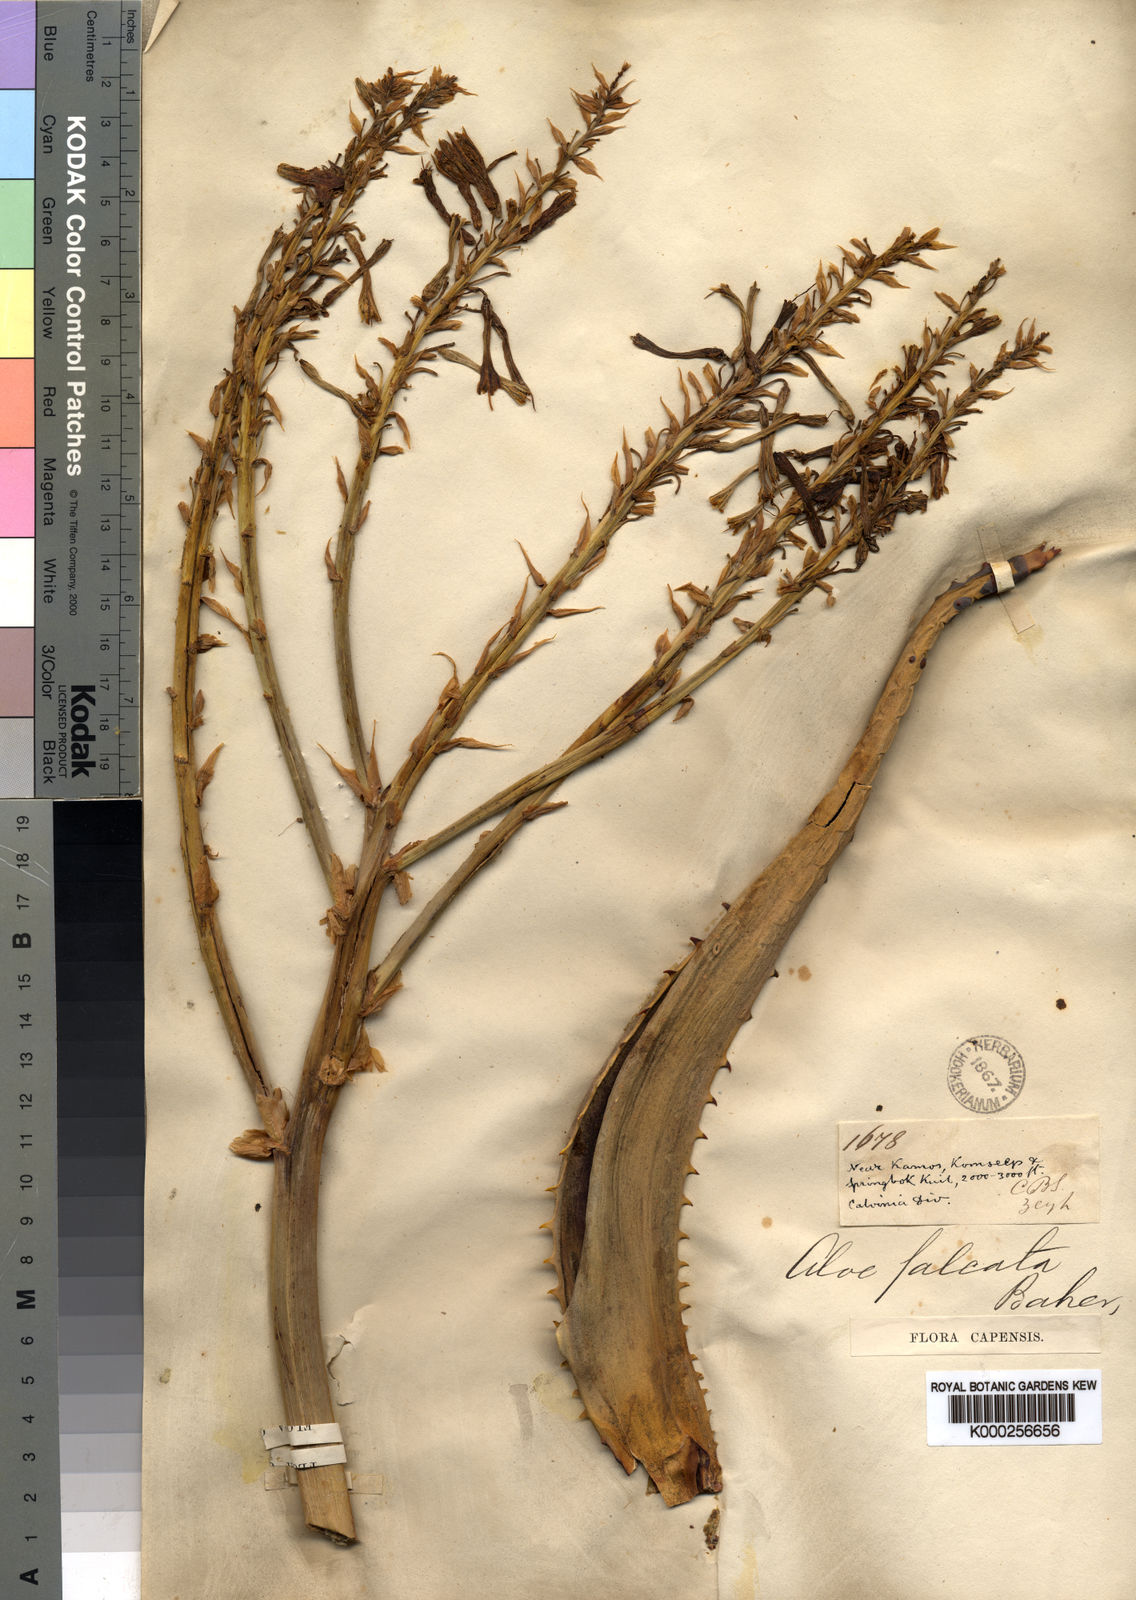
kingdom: Plantae
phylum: Tracheophyta
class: Liliopsida
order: Asparagales
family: Asphodelaceae
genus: Aloe
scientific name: Aloe falcata
